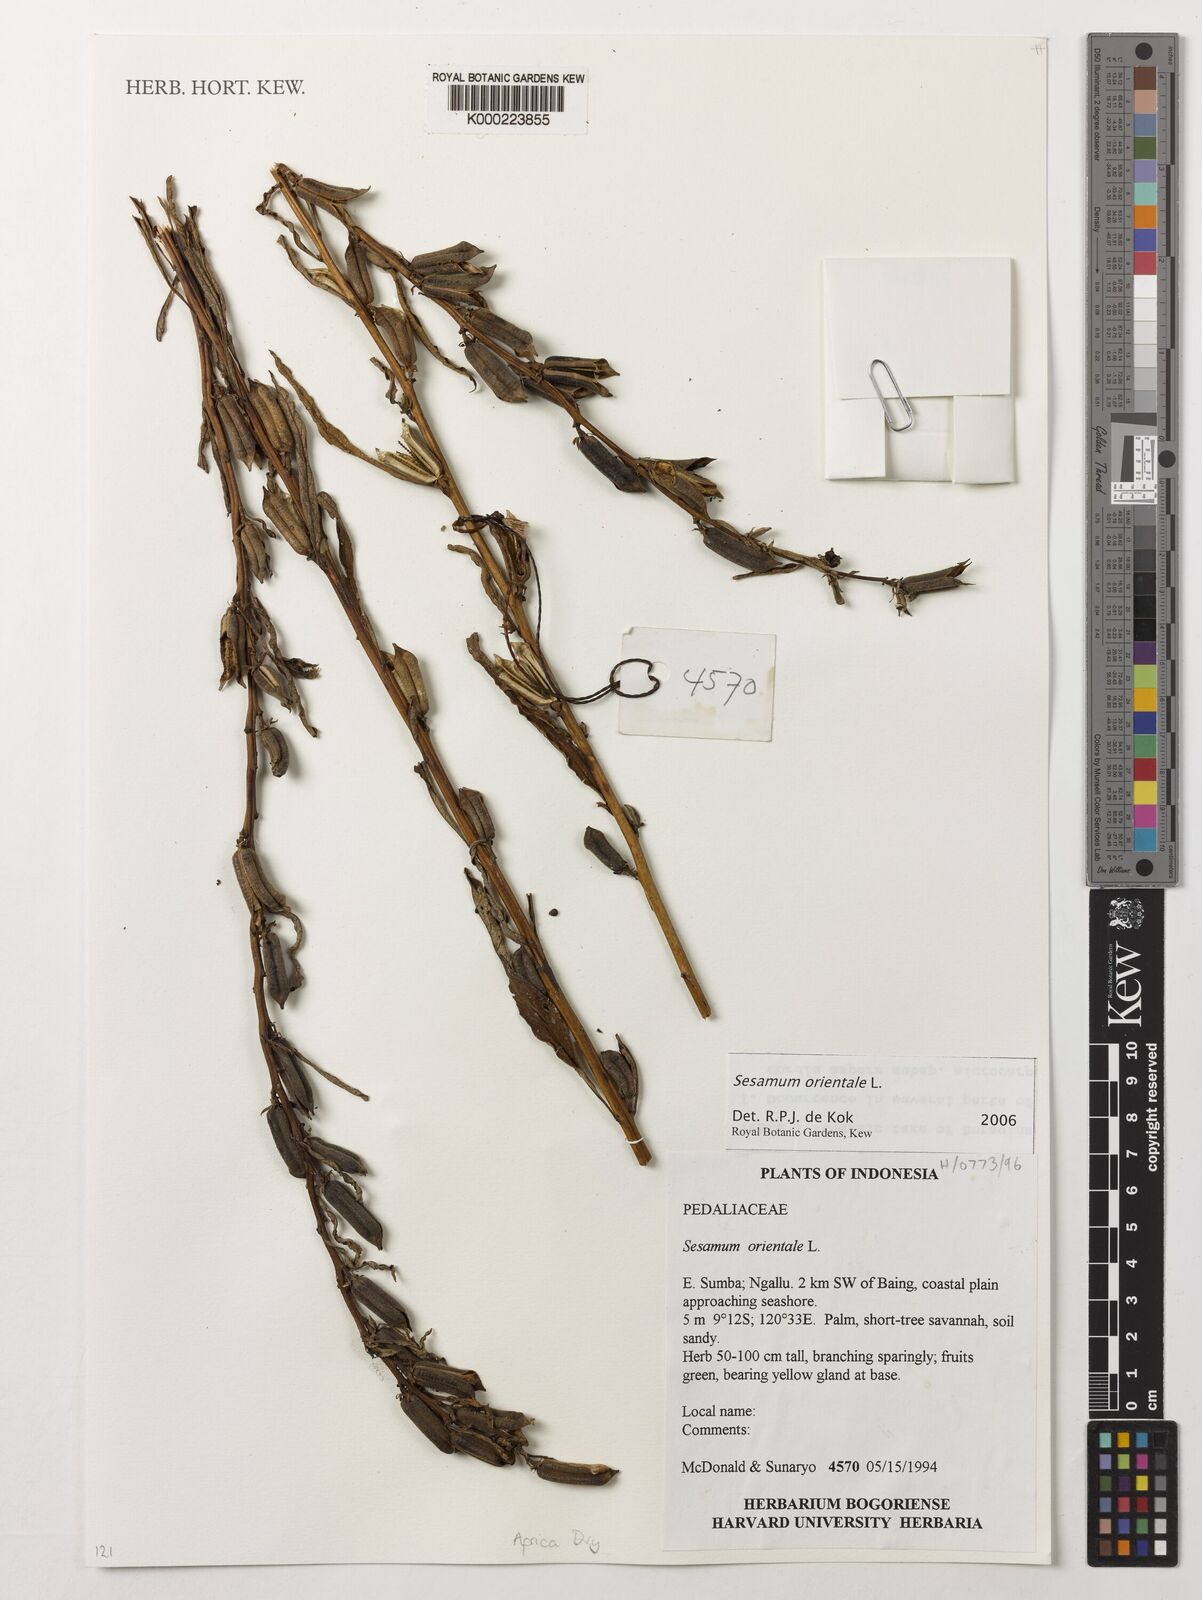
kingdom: Plantae
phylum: Tracheophyta
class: Magnoliopsida
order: Lamiales
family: Pedaliaceae
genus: Sesamum
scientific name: Sesamum indicum
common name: Sesame
